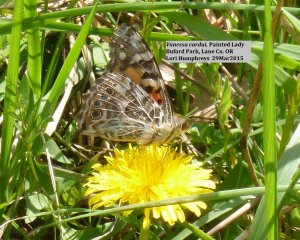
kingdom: Animalia
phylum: Arthropoda
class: Insecta
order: Lepidoptera
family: Nymphalidae
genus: Vanessa
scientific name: Vanessa cardui
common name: Painted Lady
